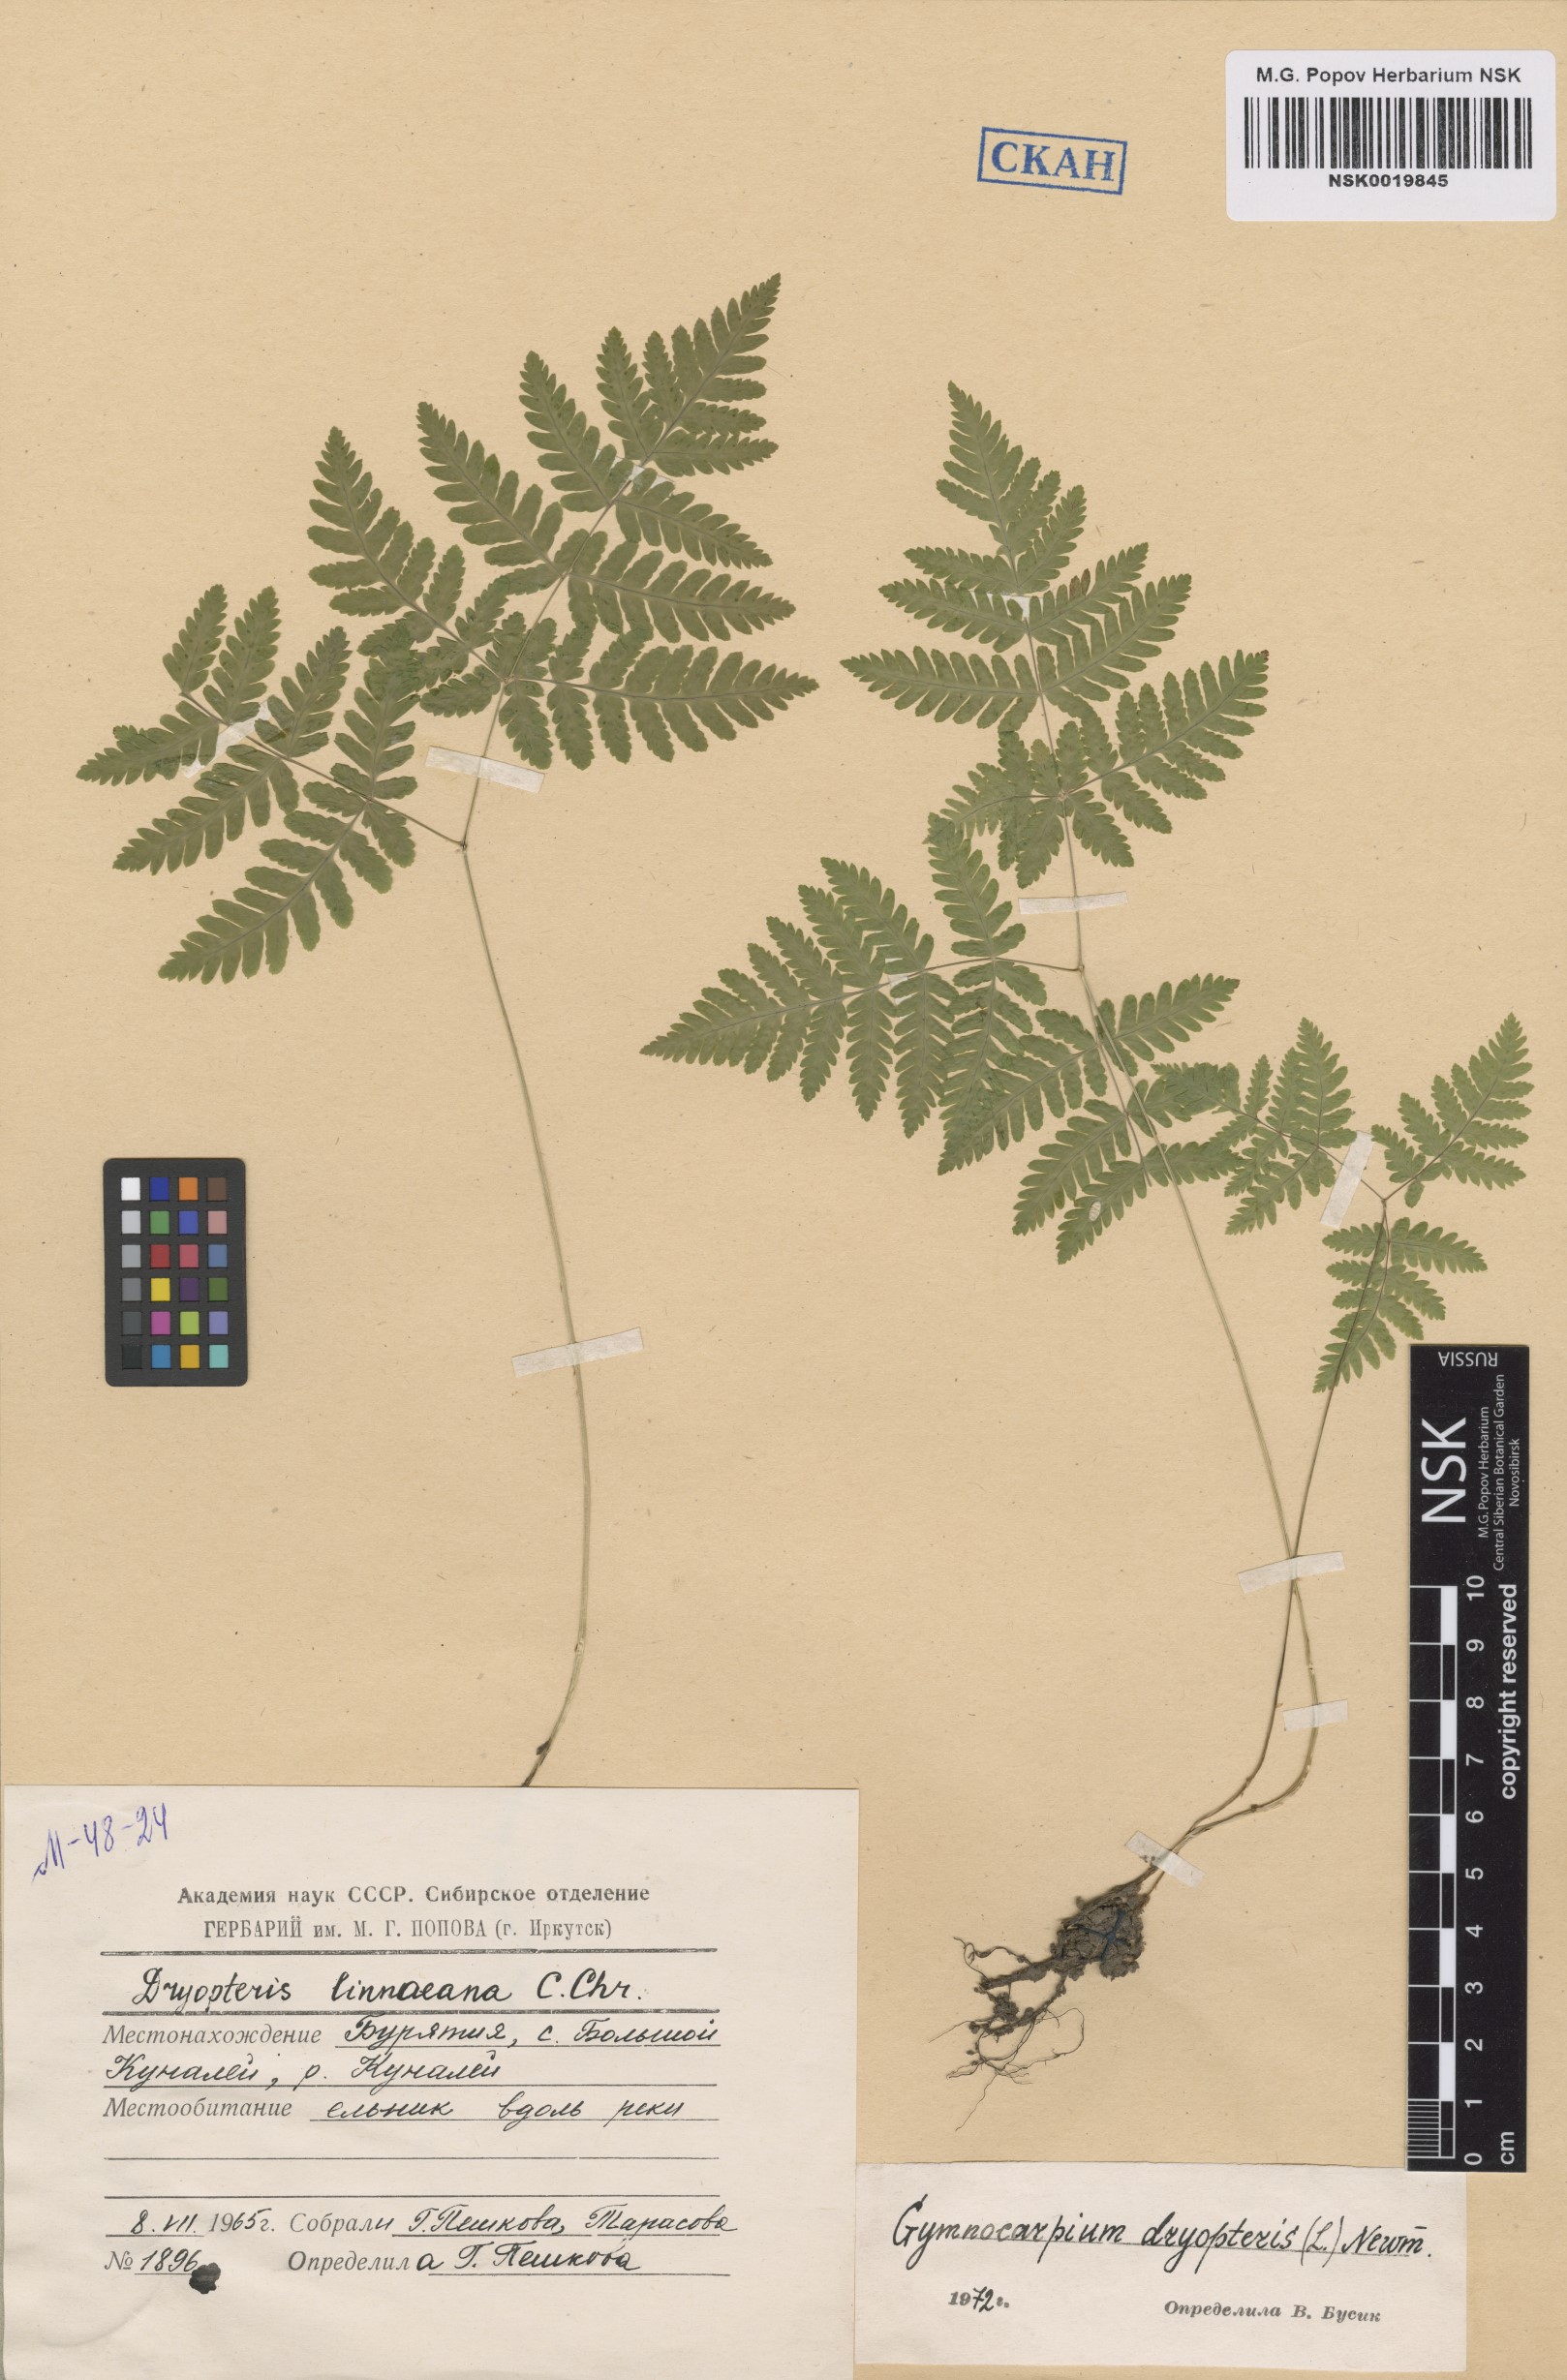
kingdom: Plantae
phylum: Tracheophyta
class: Polypodiopsida
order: Polypodiales
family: Cystopteridaceae
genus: Gymnocarpium
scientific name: Gymnocarpium dryopteris
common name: Oak fern
